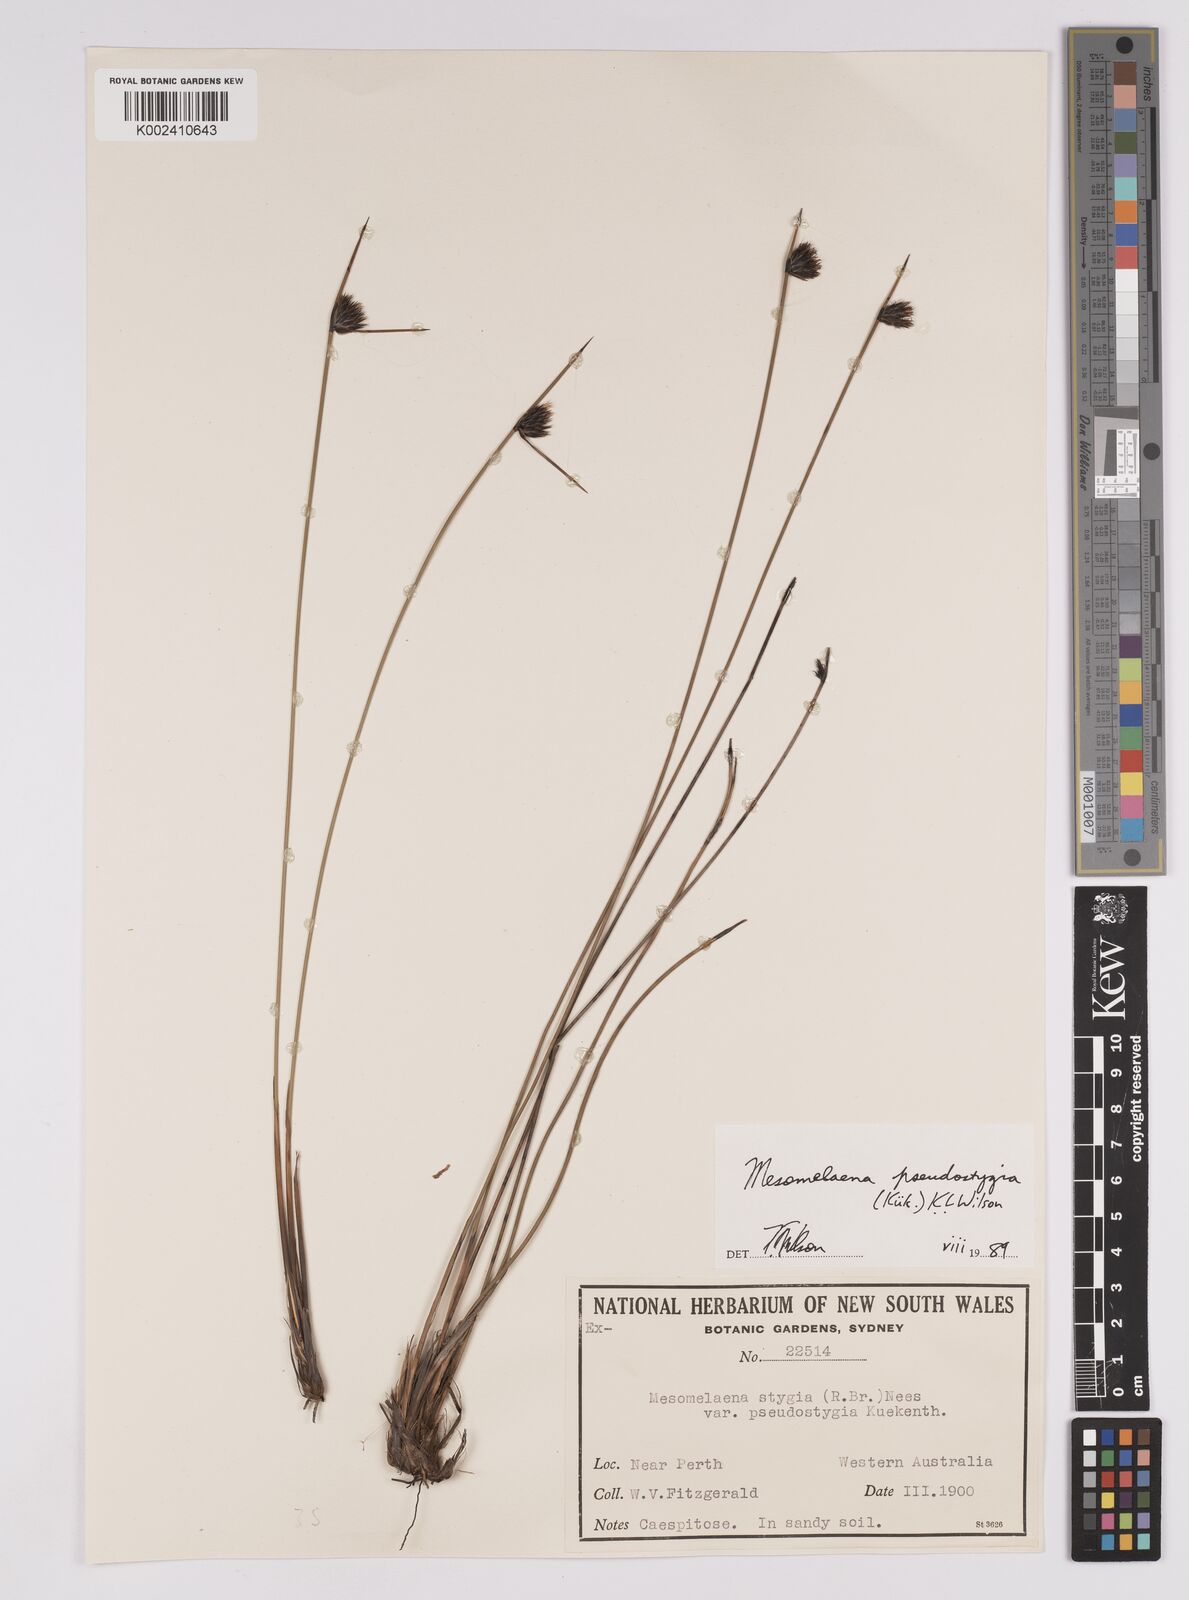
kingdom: Plantae
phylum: Tracheophyta
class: Liliopsida
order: Poales
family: Cyperaceae
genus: Mesomelaena
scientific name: Mesomelaena pseudostygia
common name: Semaphore sedge
